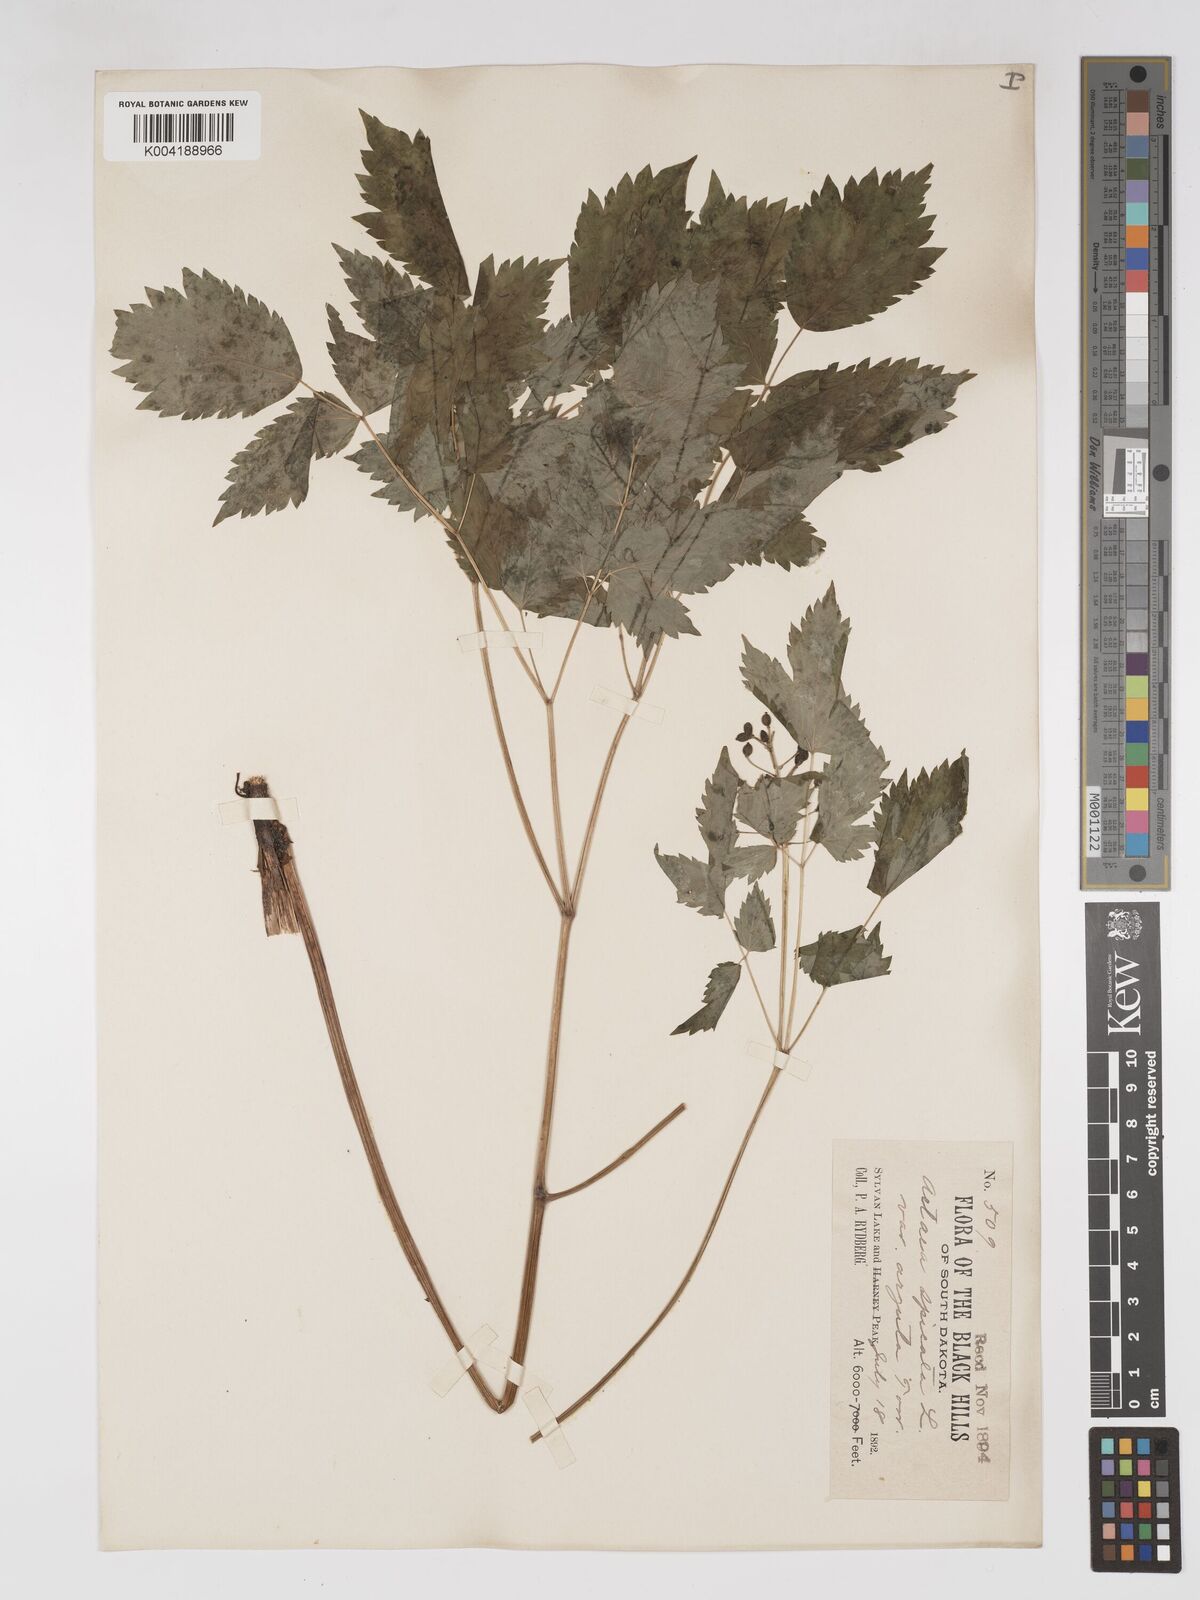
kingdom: Plantae
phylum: Tracheophyta
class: Magnoliopsida
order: Ranunculales
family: Ranunculaceae
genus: Actaea
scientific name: Actaea rubra
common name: Red baneberry
